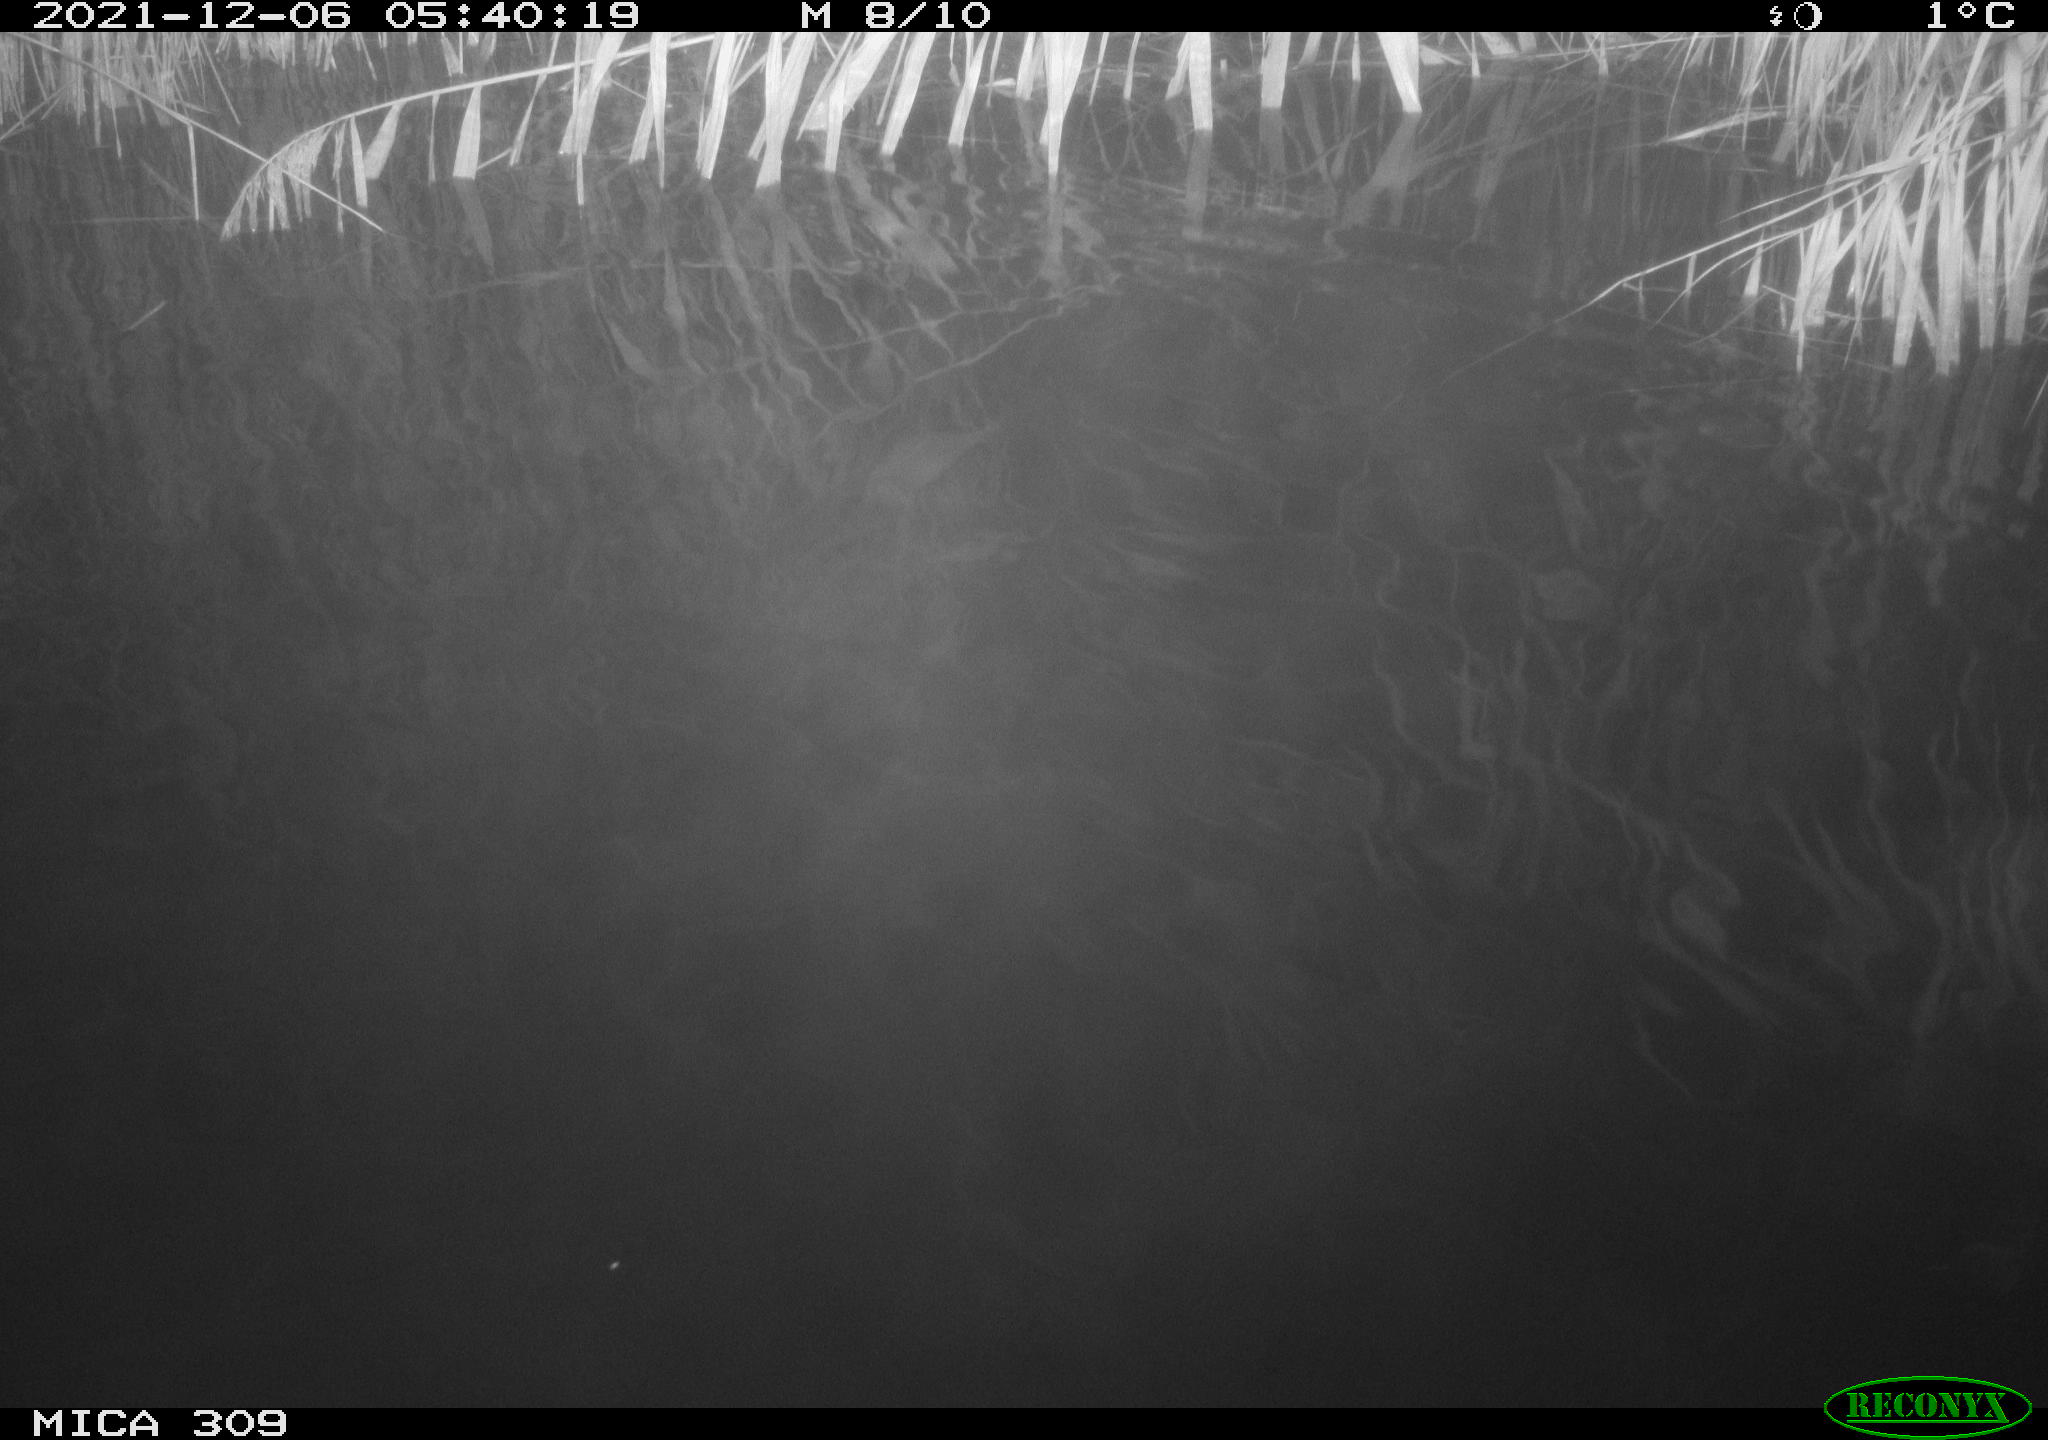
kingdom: Animalia
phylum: Chordata
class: Mammalia
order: Rodentia
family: Muridae
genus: Rattus
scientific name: Rattus norvegicus
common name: Brown rat
